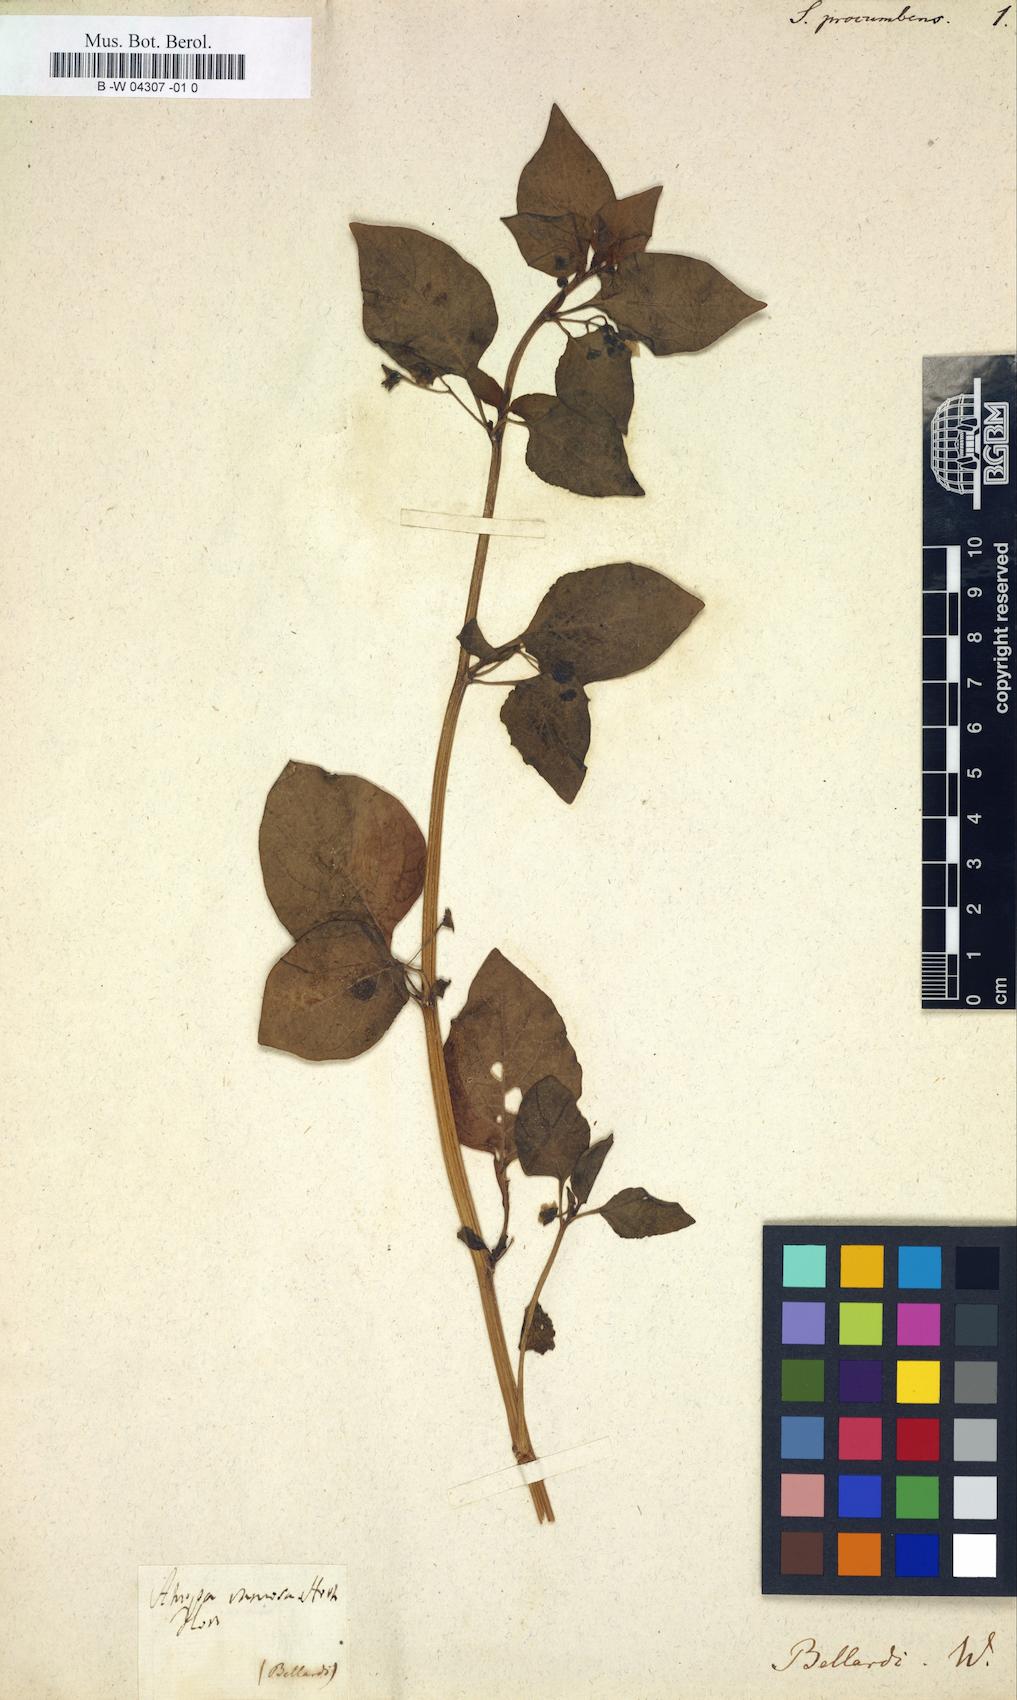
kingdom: Plantae
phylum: Tracheophyta
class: Magnoliopsida
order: Solanales
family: Solanaceae
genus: Atropa
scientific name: Atropa
